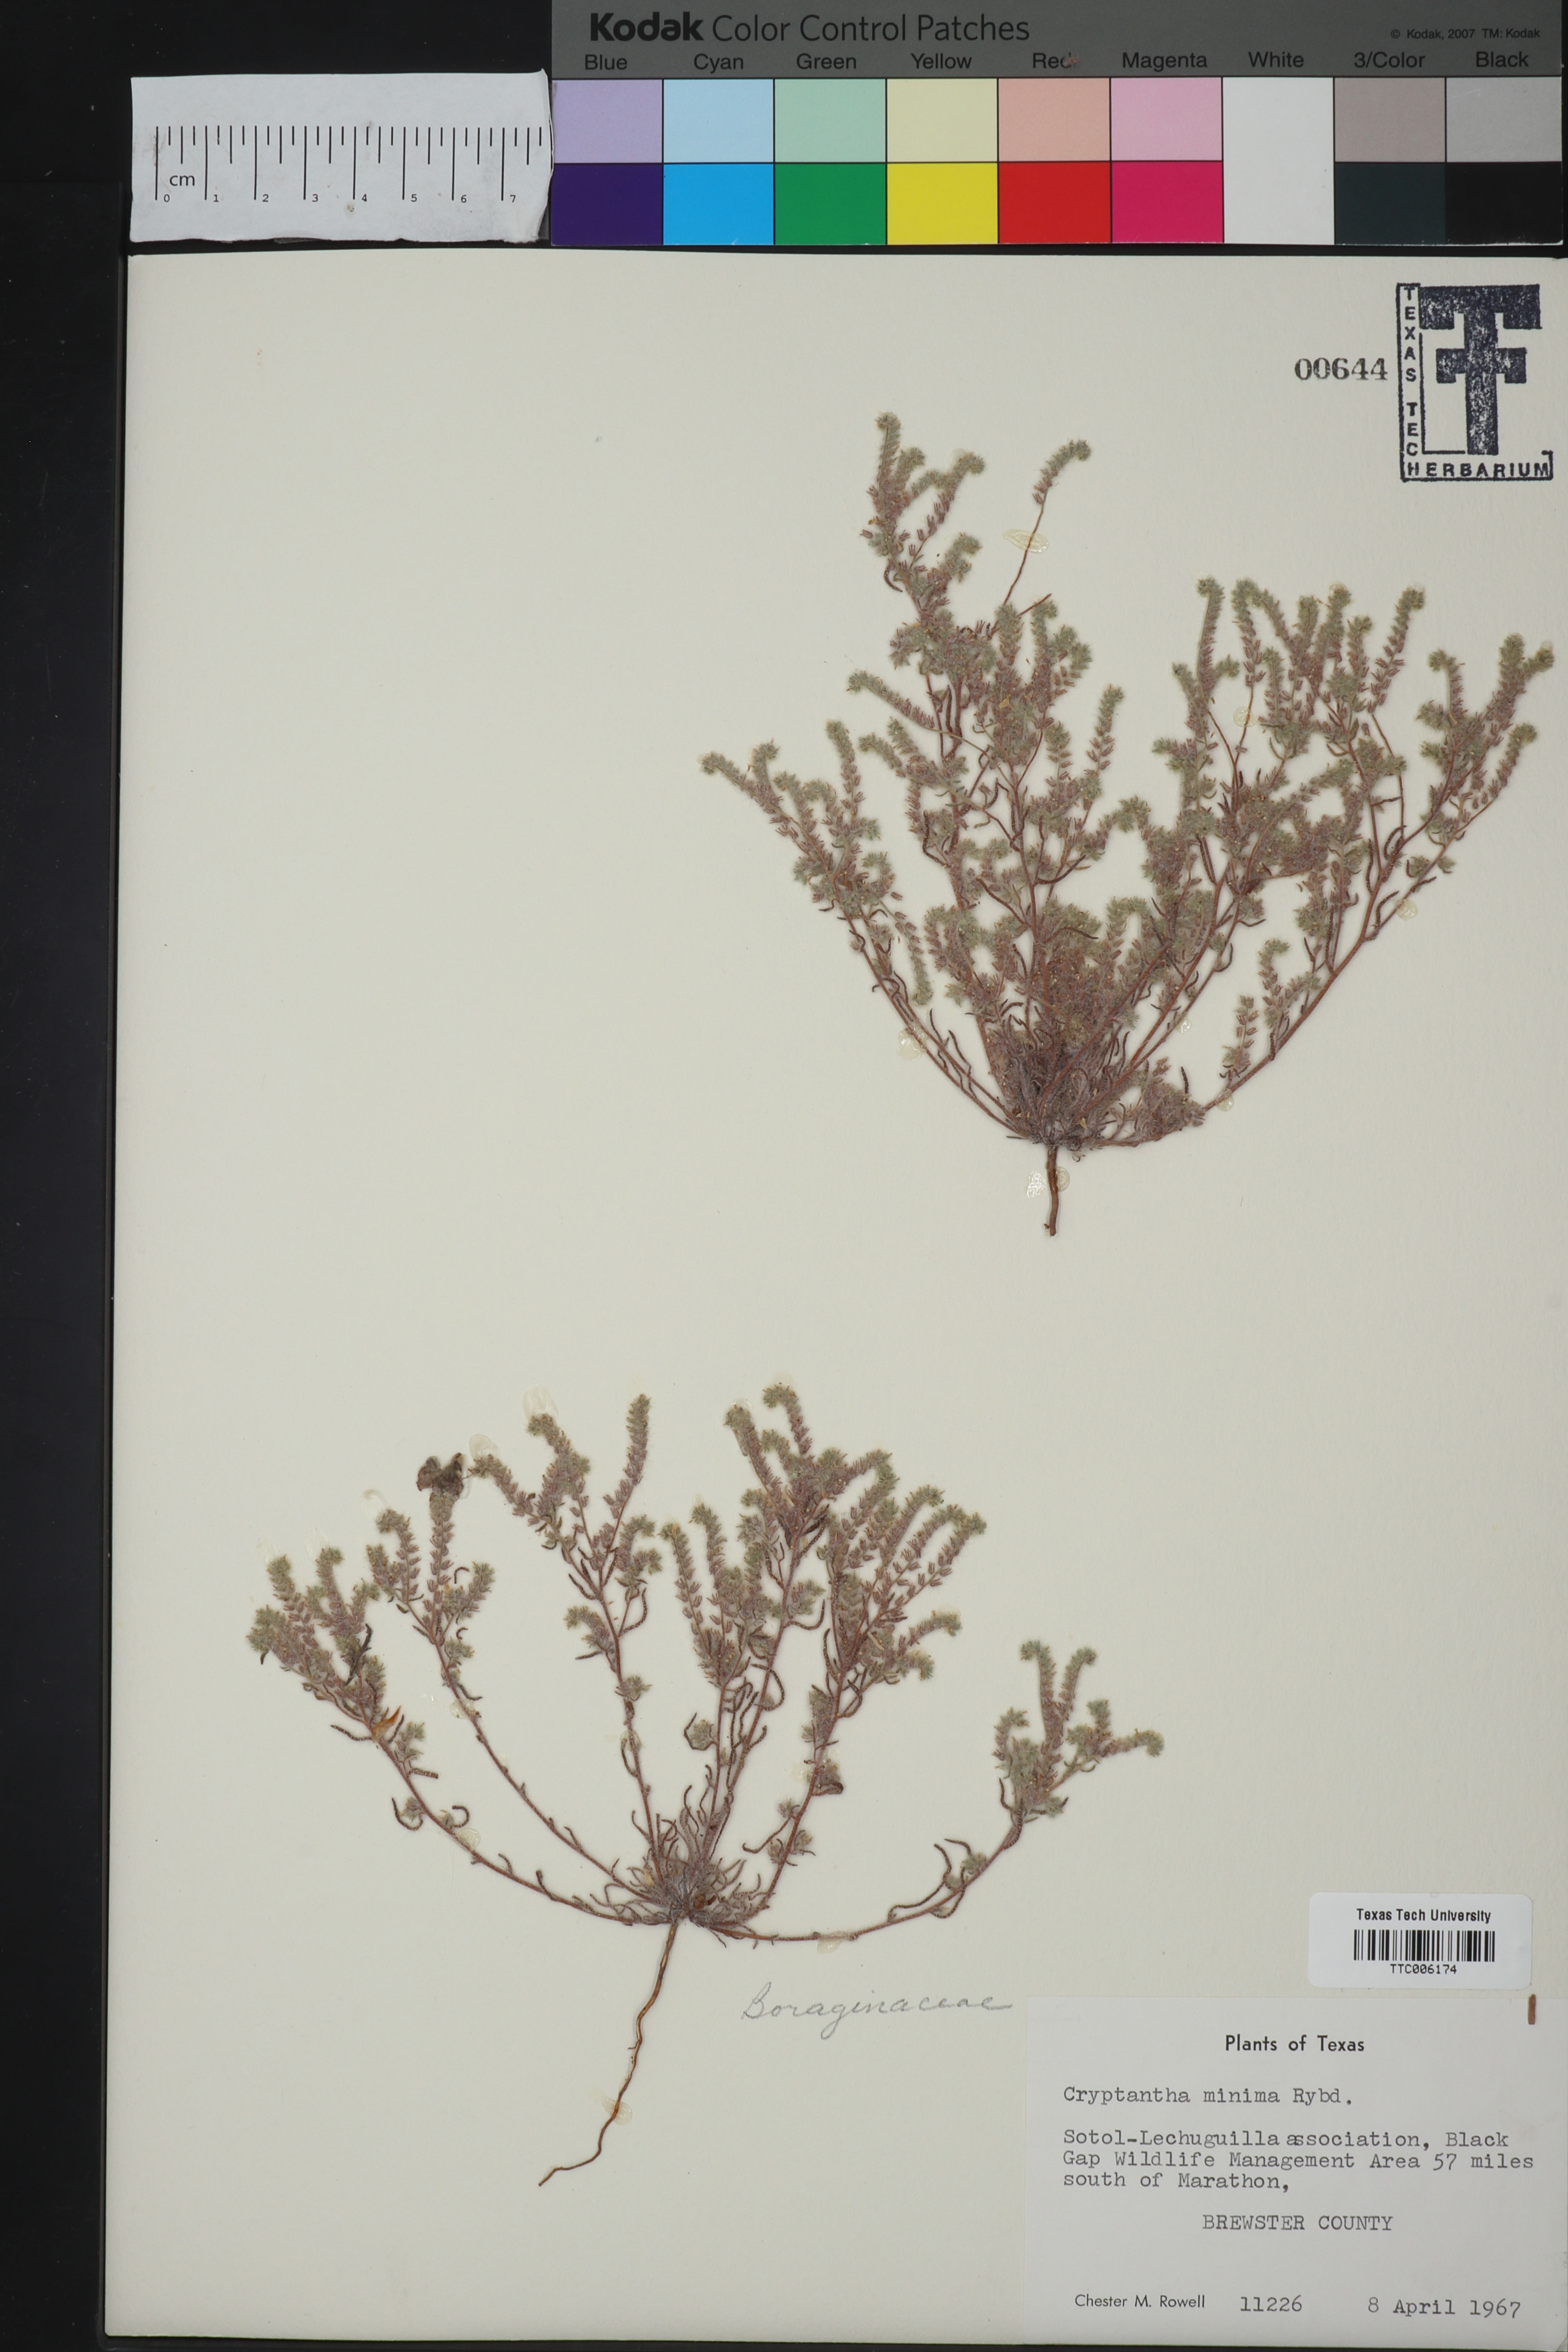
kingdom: Plantae
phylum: Tracheophyta
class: Magnoliopsida
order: Boraginales
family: Boraginaceae
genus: Cryptantha
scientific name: Cryptantha minima
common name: Little cat's-eye
